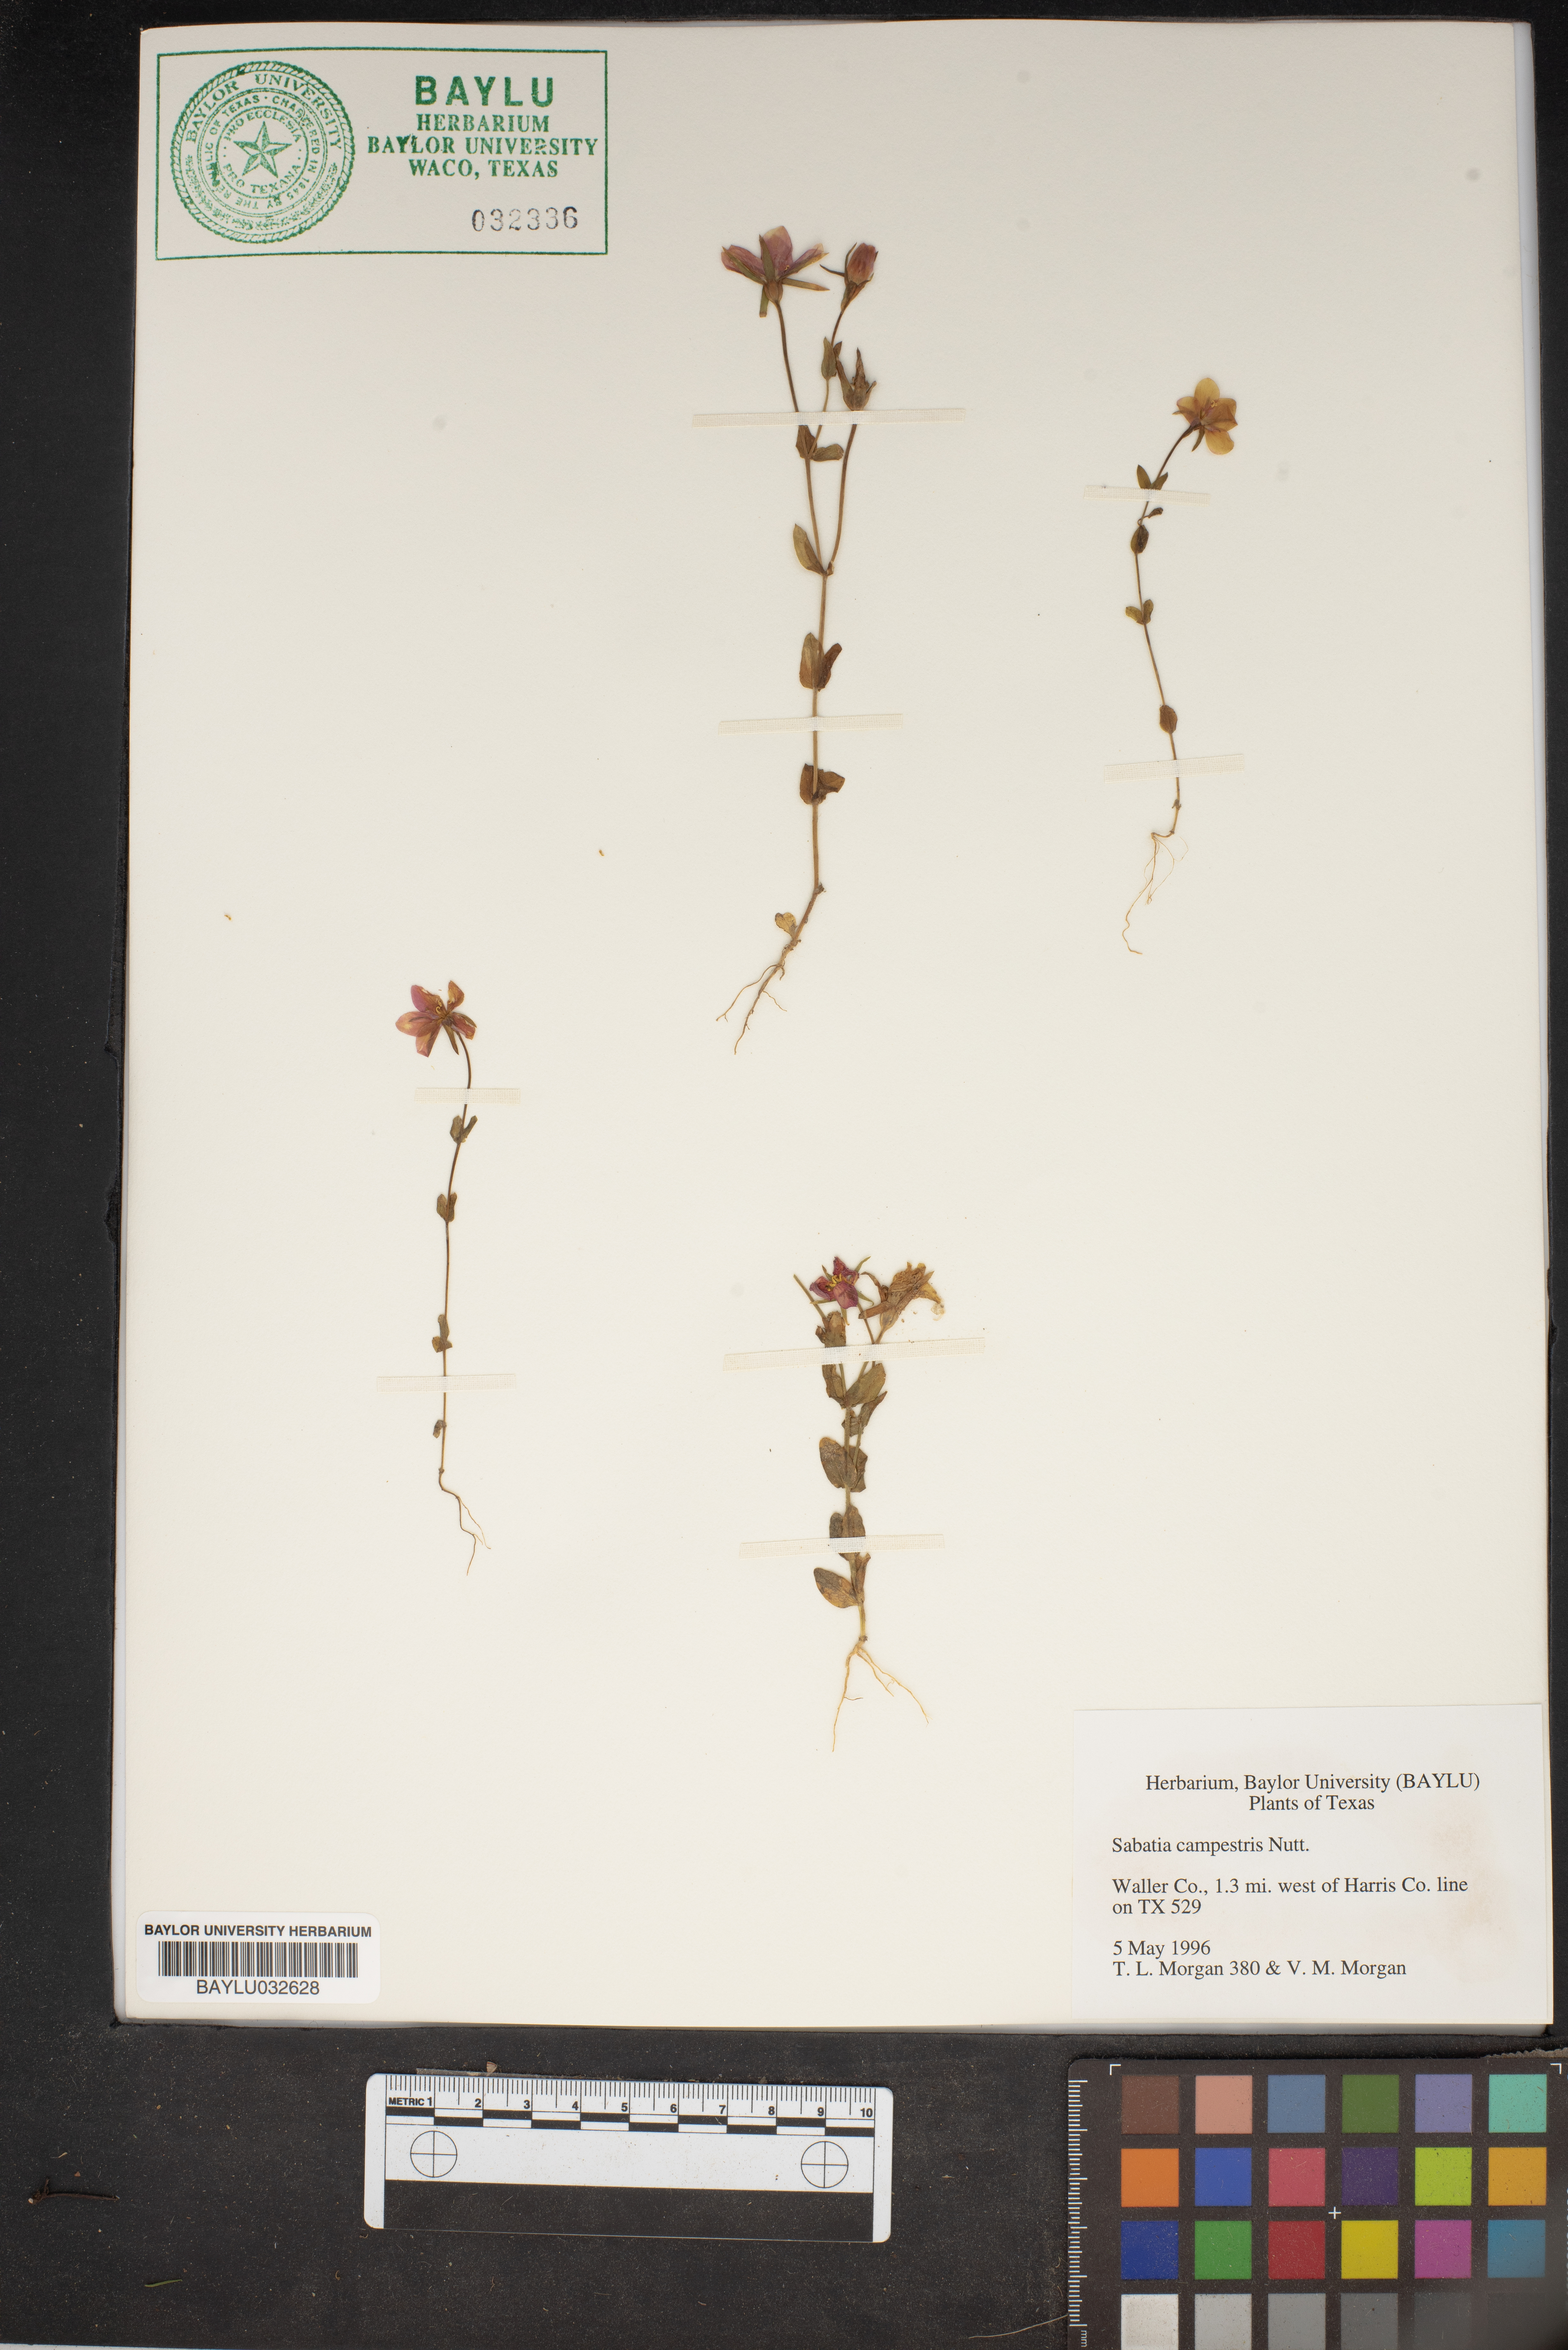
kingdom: Plantae
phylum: Tracheophyta
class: Magnoliopsida
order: Gentianales
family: Gentianaceae
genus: Sabatia
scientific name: Sabatia campestris
